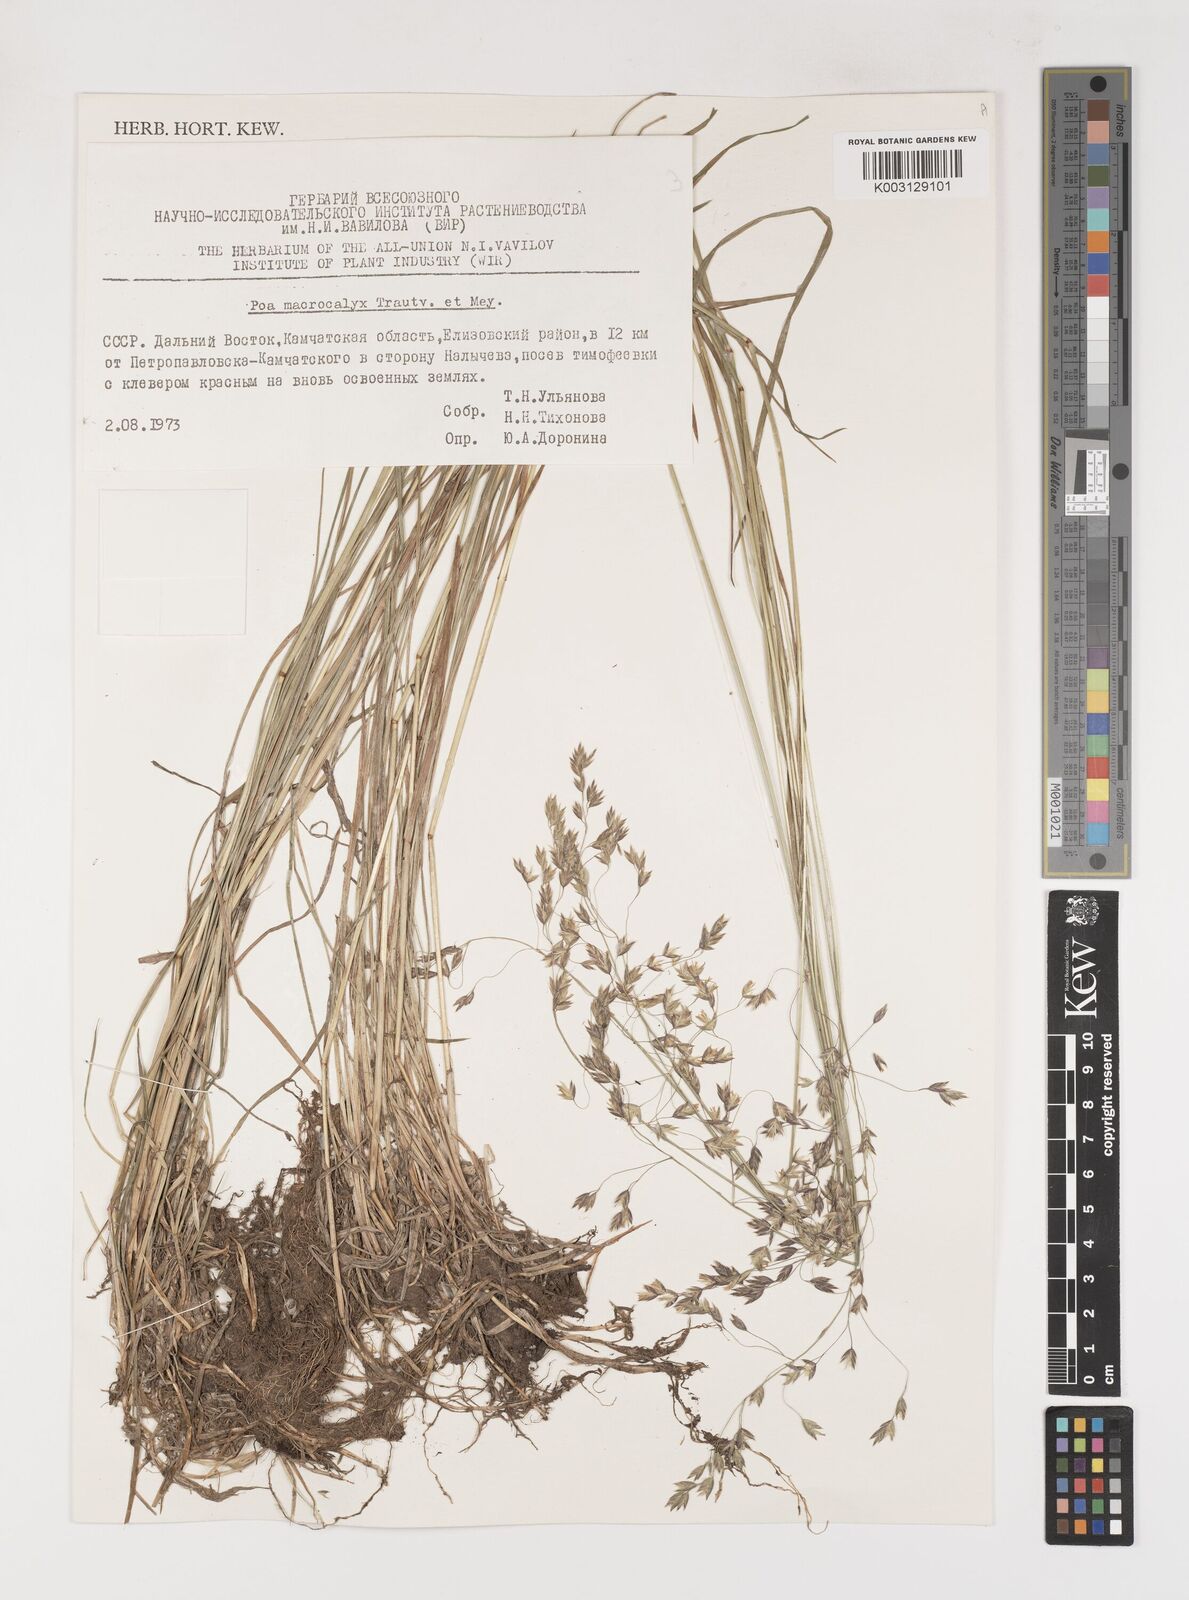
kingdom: Plantae
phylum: Tracheophyta
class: Liliopsida
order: Poales
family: Poaceae
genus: Poa
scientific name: Poa macrocalyx
